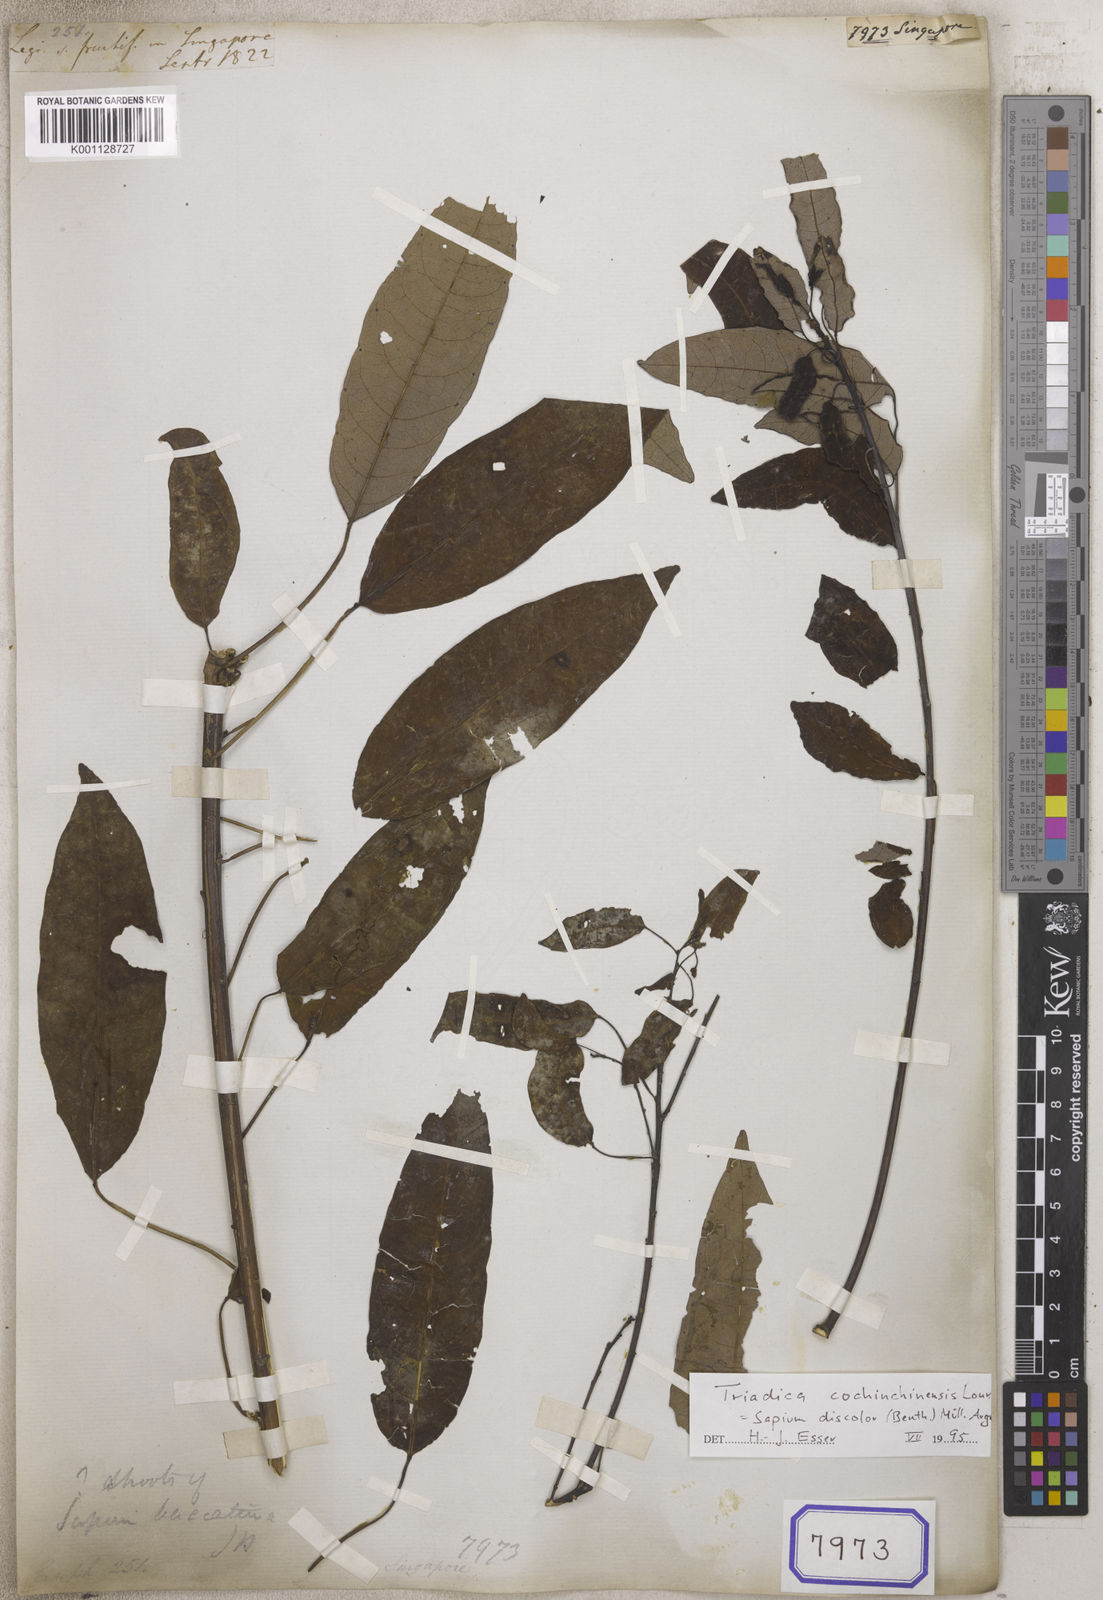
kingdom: Plantae
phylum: Tracheophyta
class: Magnoliopsida
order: Malpighiales
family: Euphorbiaceae
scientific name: Euphorbiaceae
